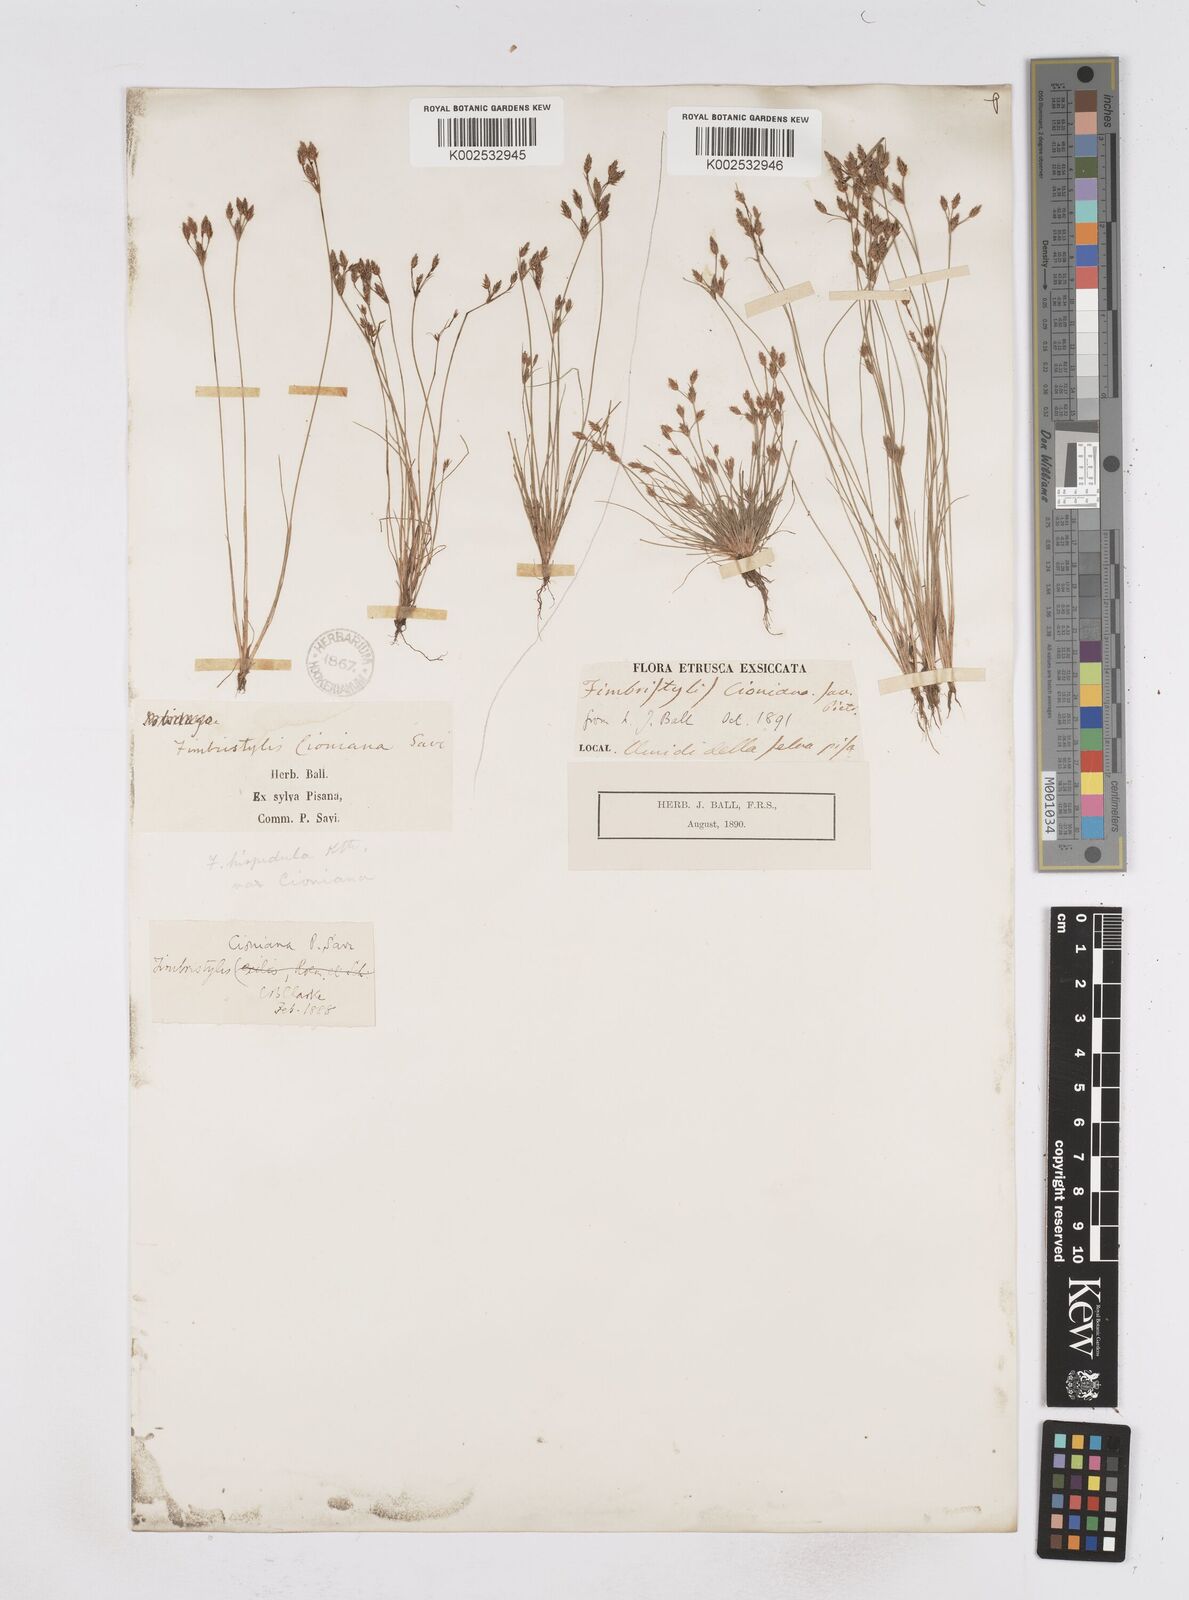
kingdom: Plantae
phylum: Tracheophyta
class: Liliopsida
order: Poales
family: Cyperaceae
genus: Bulbostylis
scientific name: Bulbostylis cioniana
